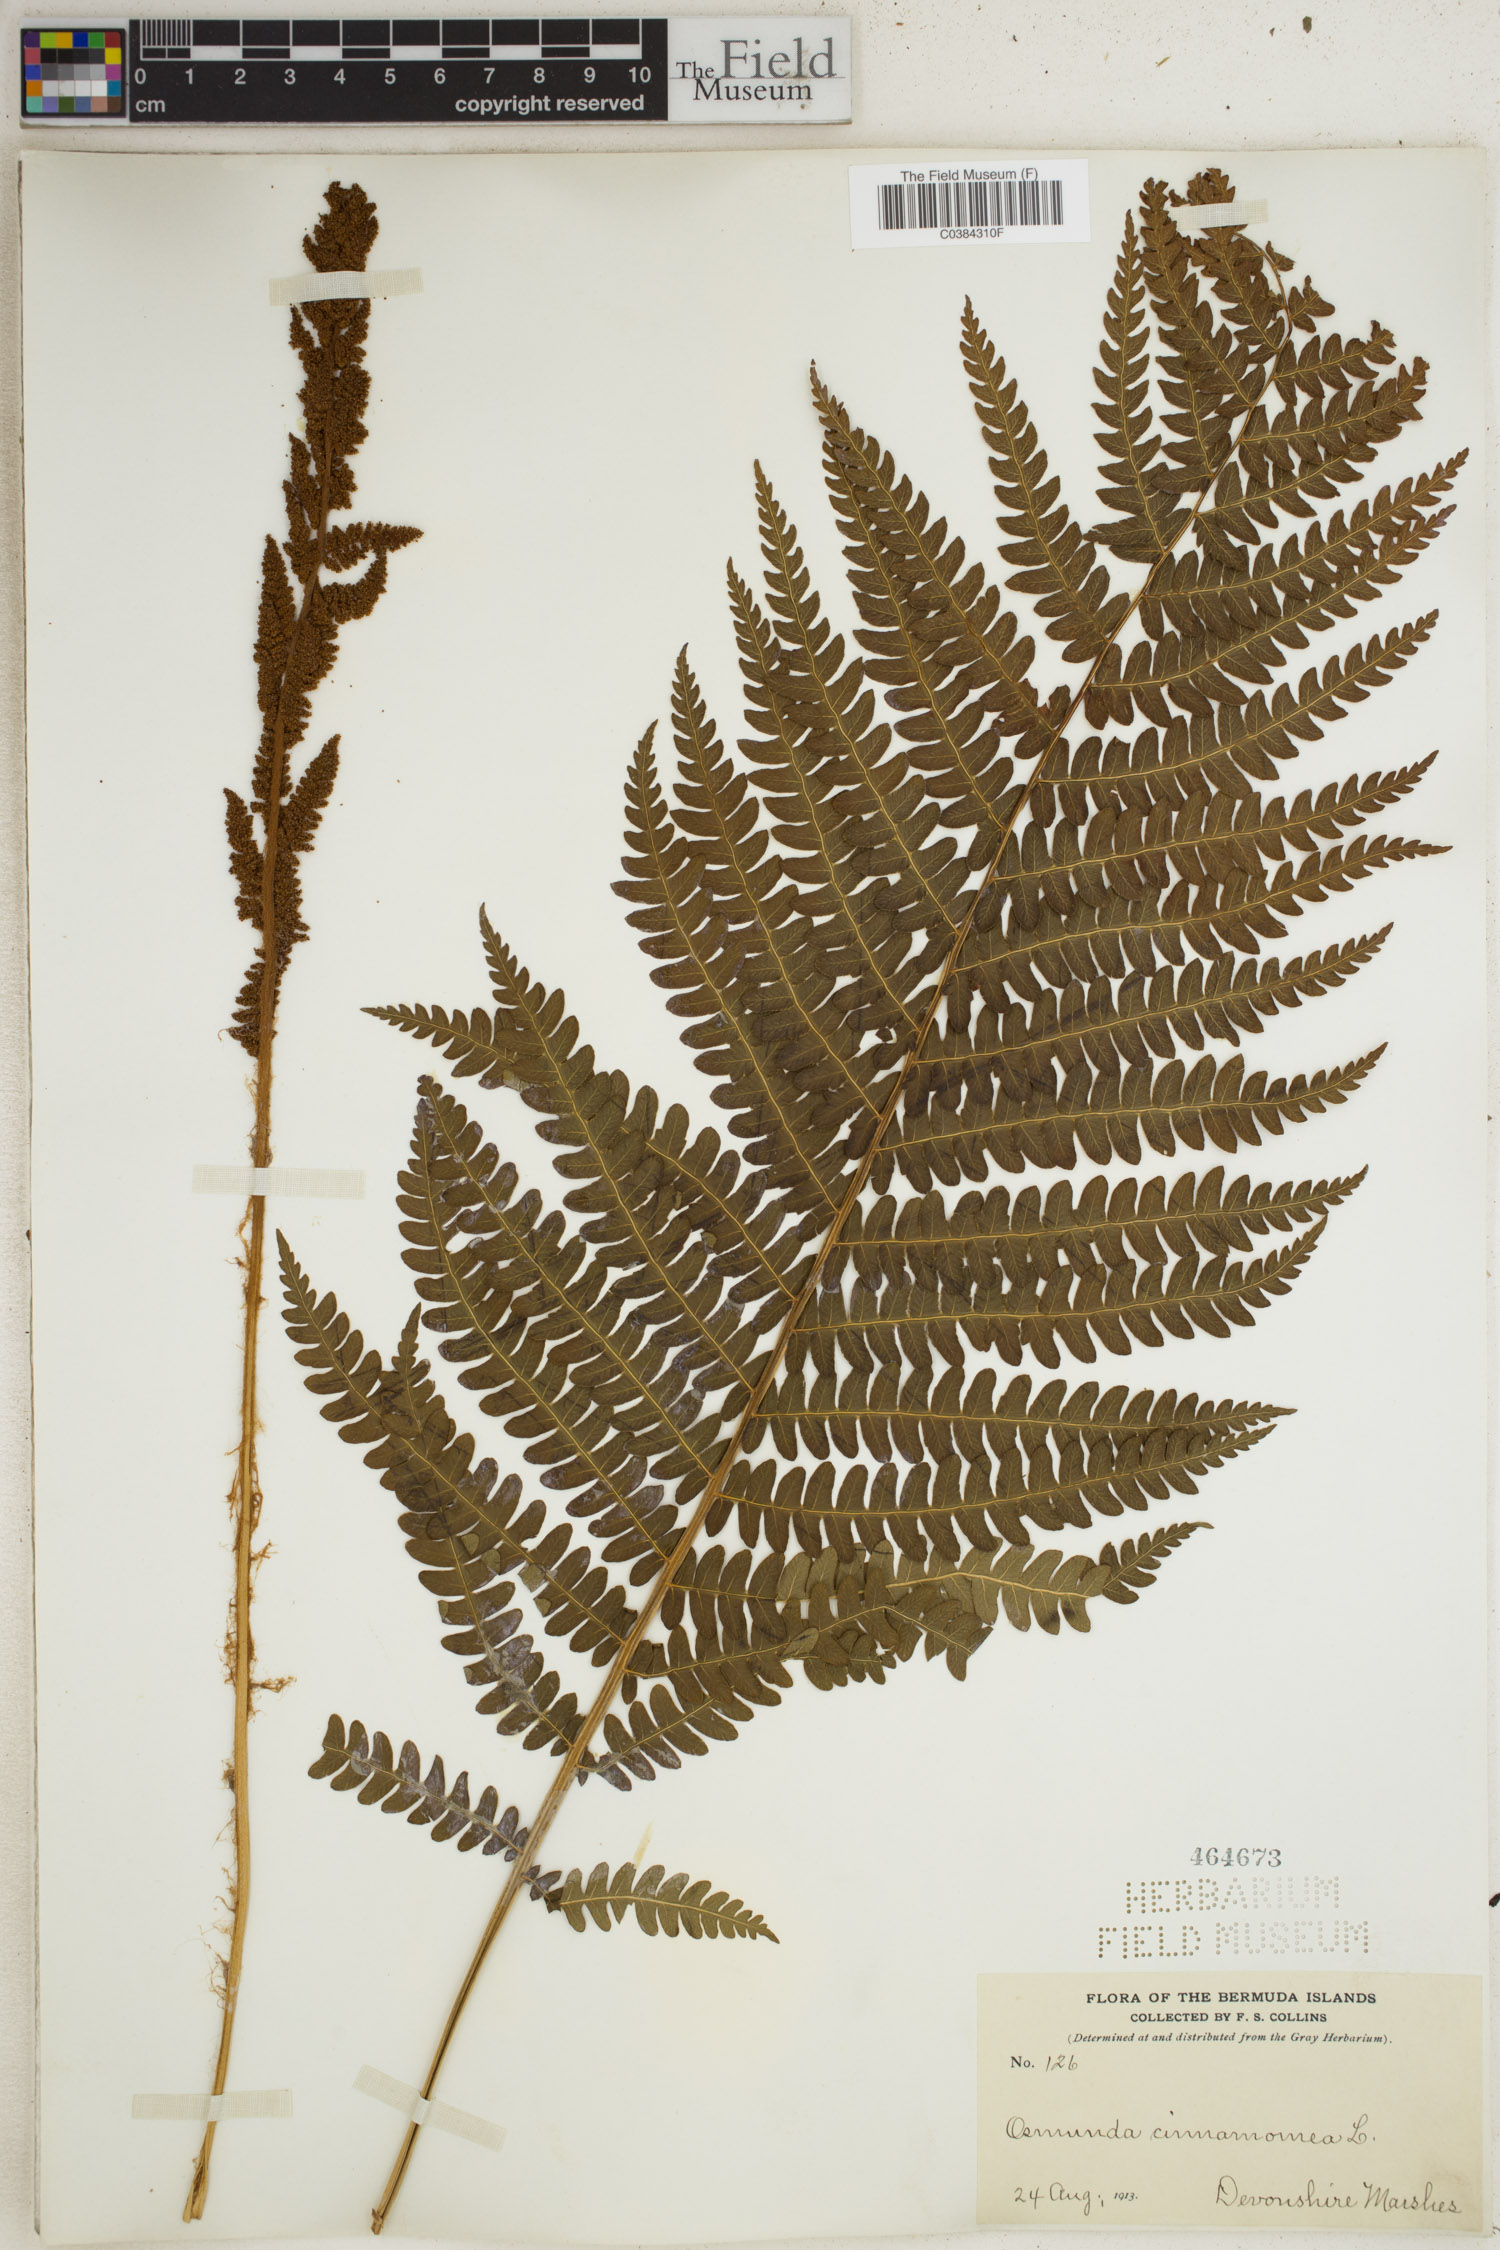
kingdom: Plantae
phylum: Tracheophyta
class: Polypodiopsida
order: Osmundales
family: Osmundaceae
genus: Osmundastrum
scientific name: Osmundastrum cinnamomeum
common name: Cinnamon fern
